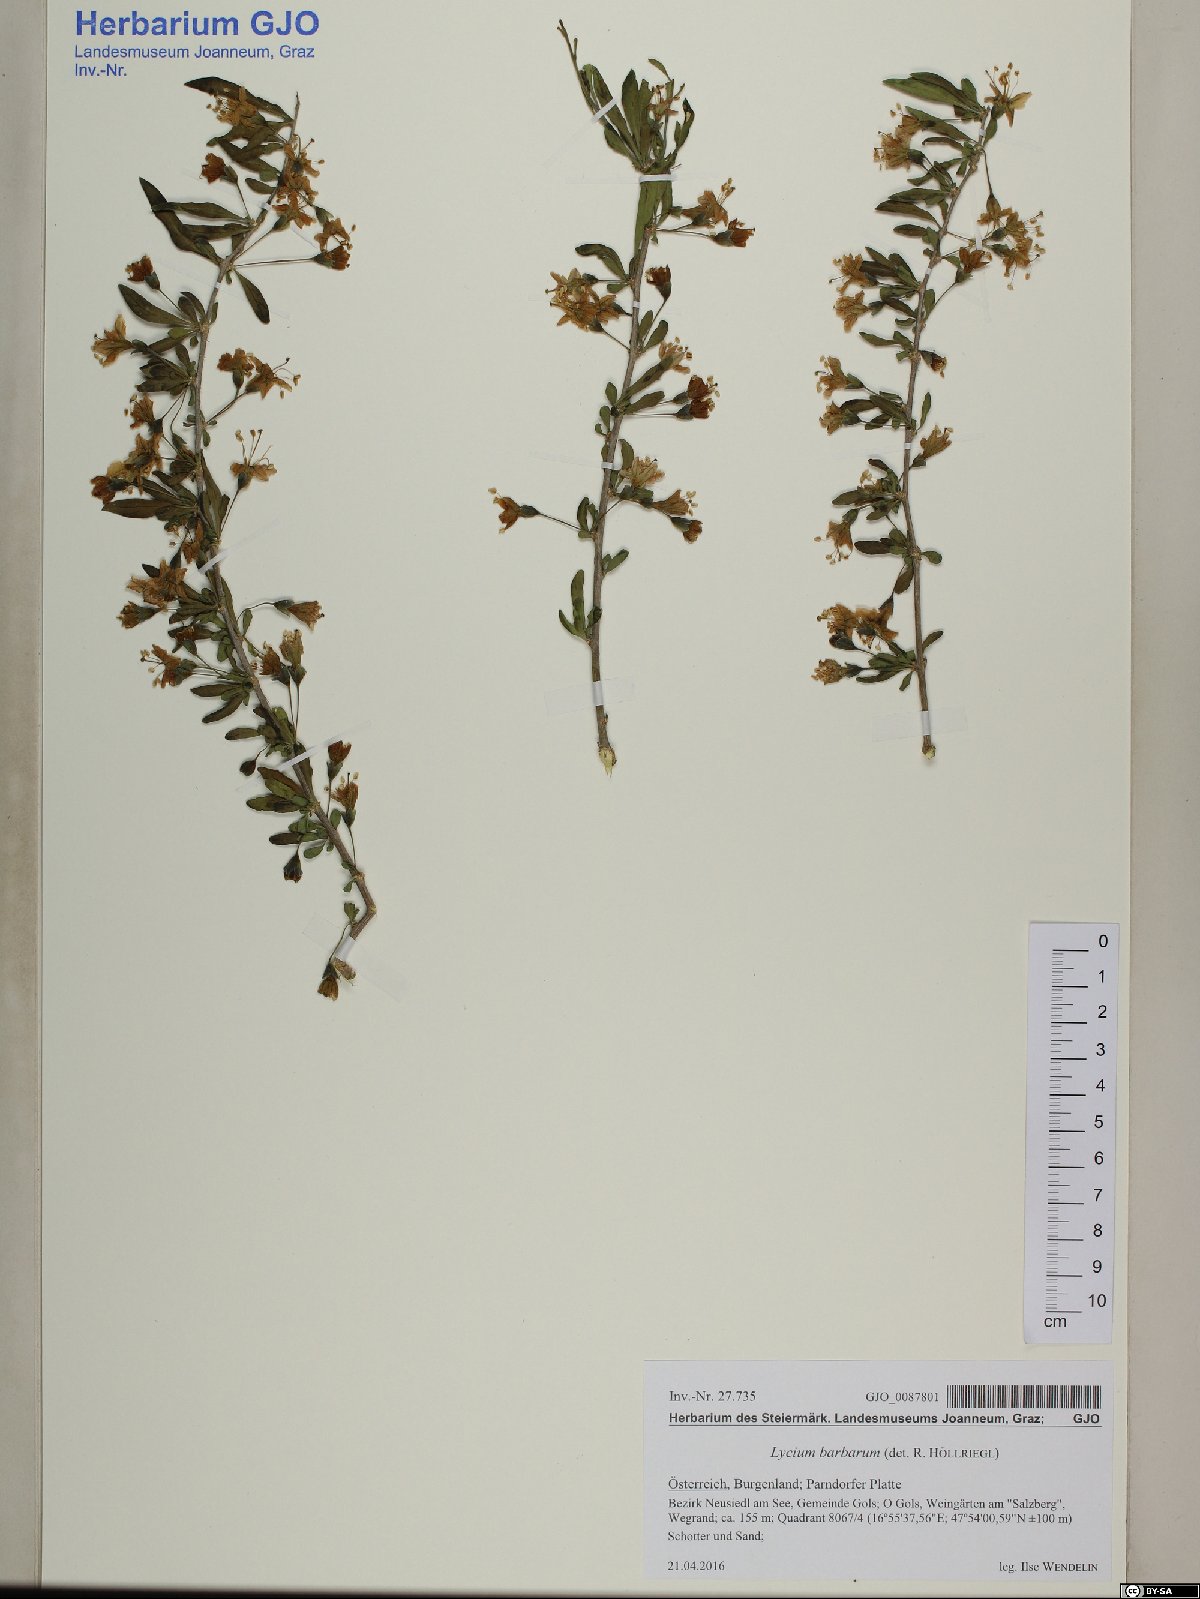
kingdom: Plantae
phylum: Tracheophyta
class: Magnoliopsida
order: Solanales
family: Solanaceae
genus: Lycium
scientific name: Lycium barbarum
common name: Duke of argyll's teaplant
